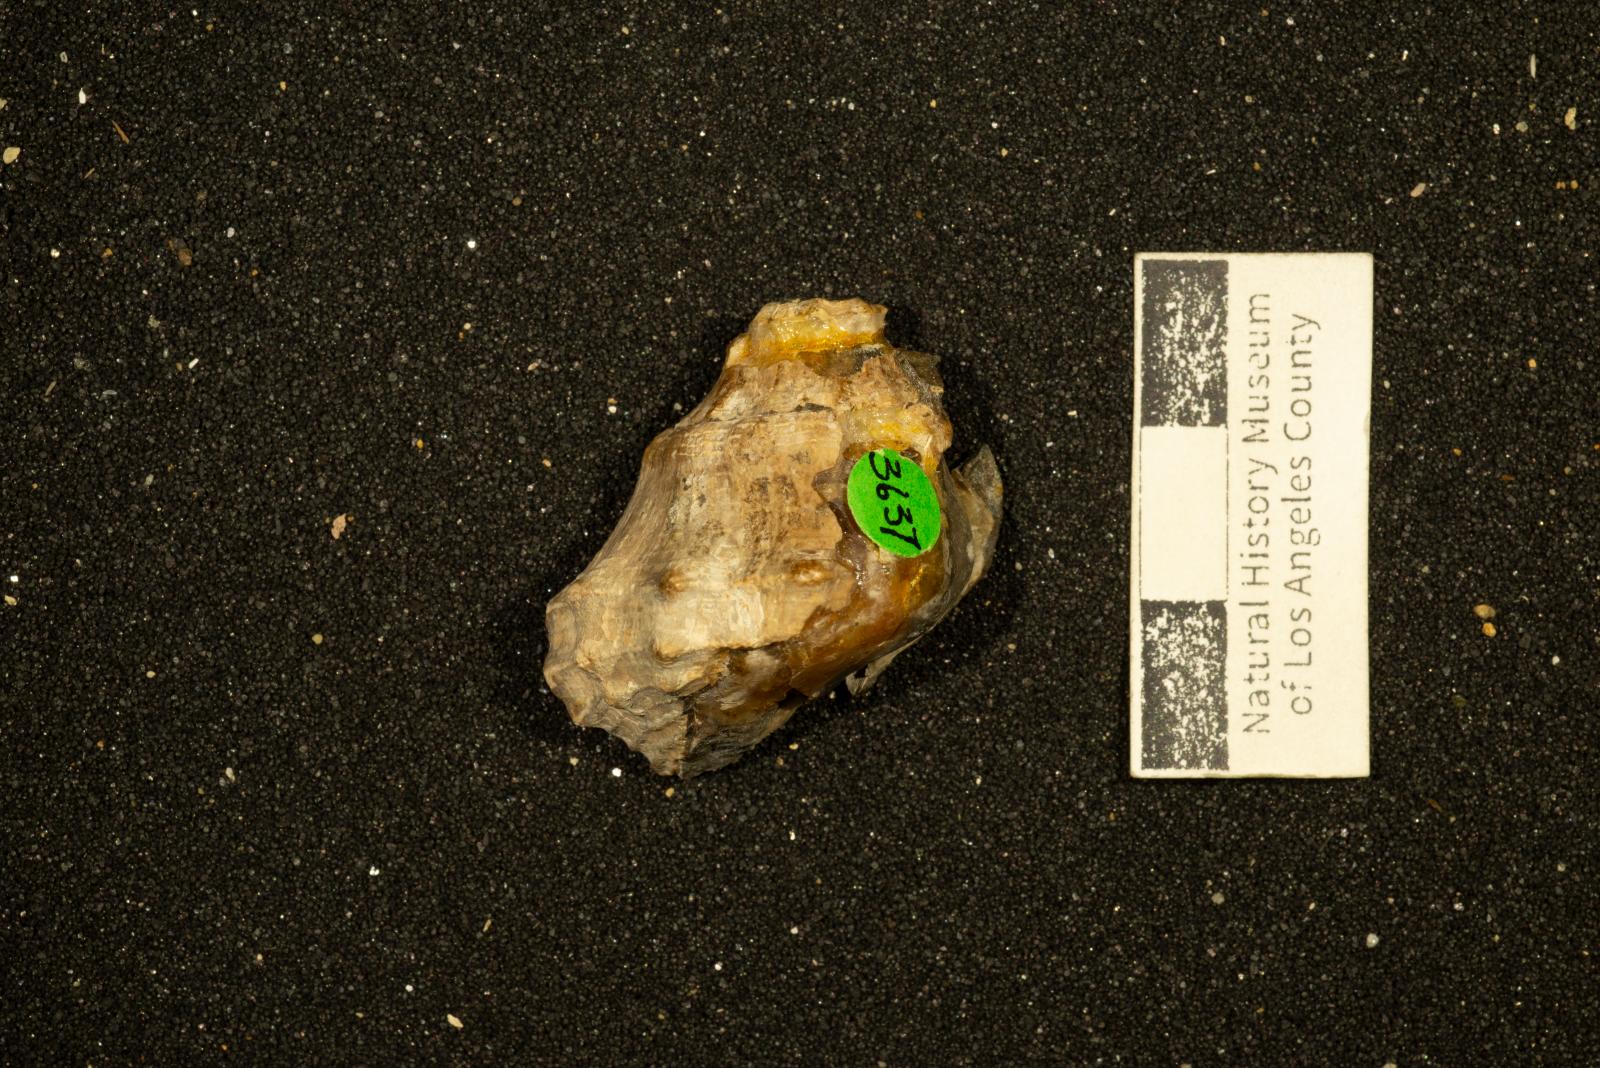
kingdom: Animalia
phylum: Mollusca
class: Gastropoda
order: Neogastropoda
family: Perissityidae
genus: Perissitys
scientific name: Perissitys Perissolax brevirostris
